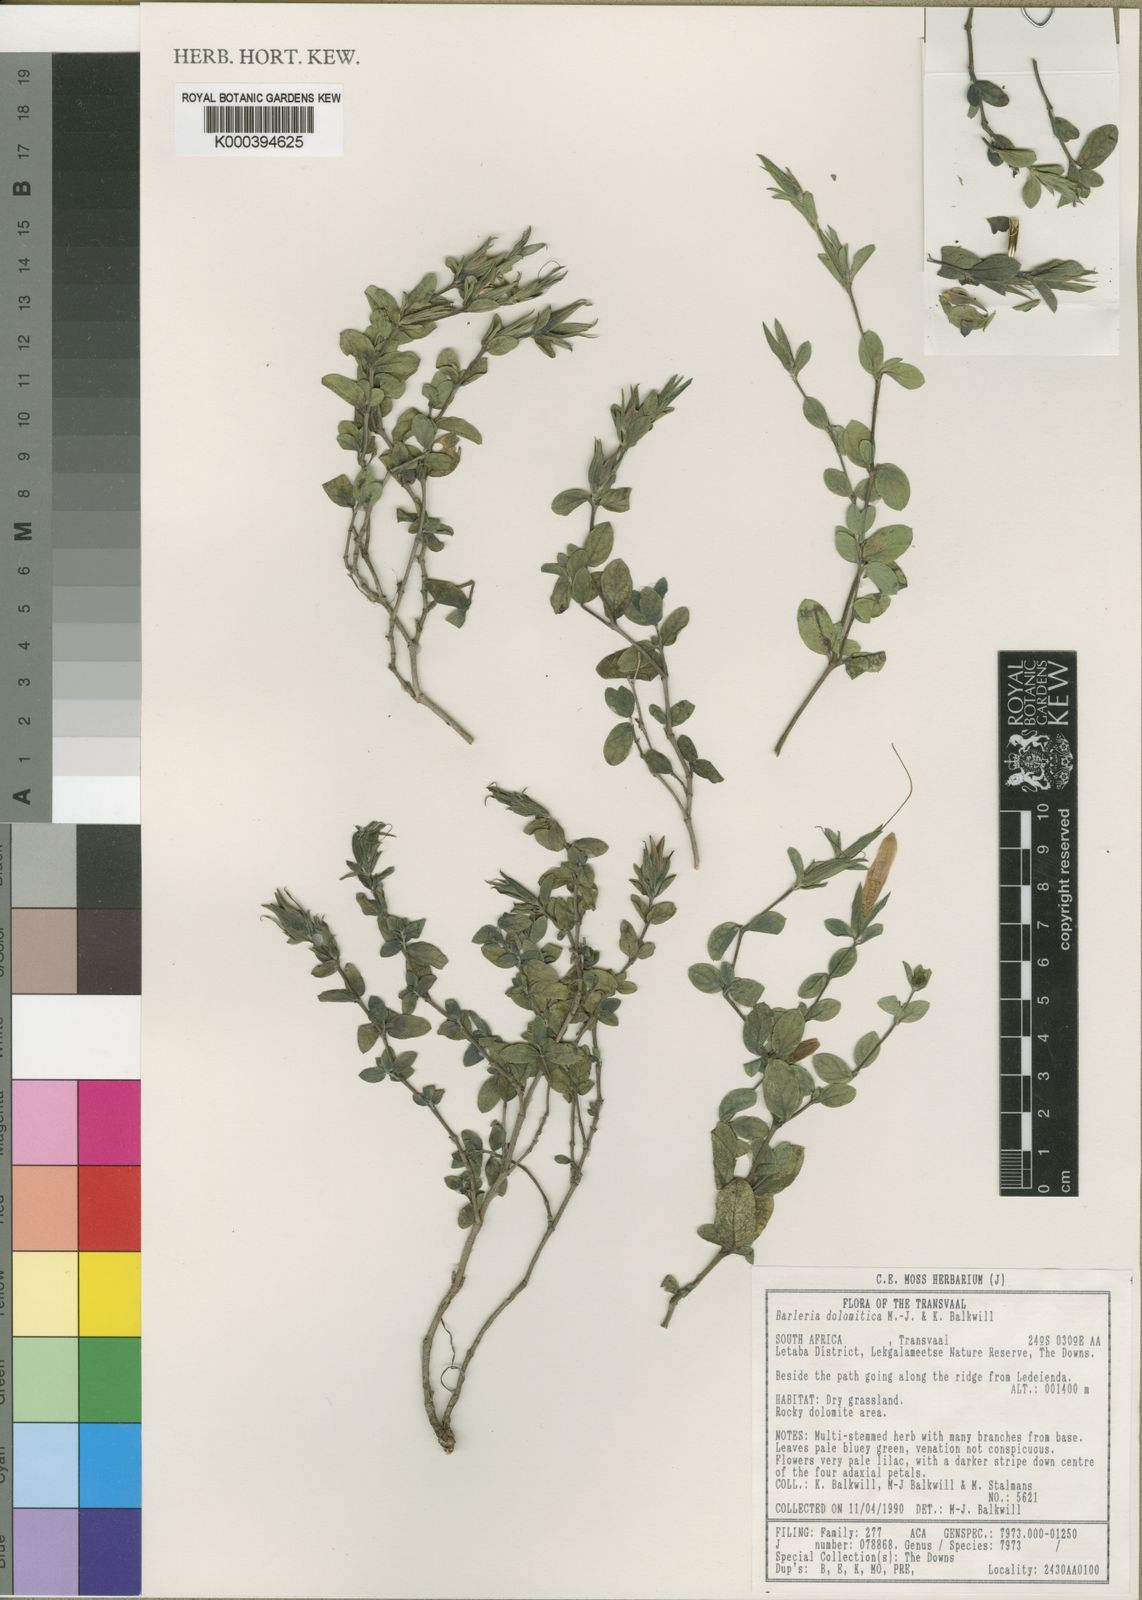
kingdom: Plantae
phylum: Tracheophyta
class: Magnoliopsida
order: Lamiales
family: Acanthaceae
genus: Barleria
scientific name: Barleria dolomiticola
